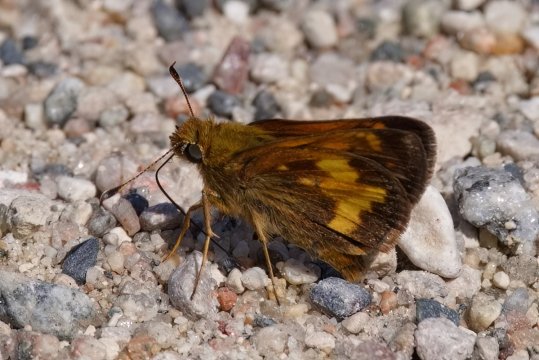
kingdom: Animalia
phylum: Arthropoda
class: Insecta
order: Lepidoptera
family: Hesperiidae
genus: Lon
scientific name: Lon hobomok
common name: Hobomok Skipper
